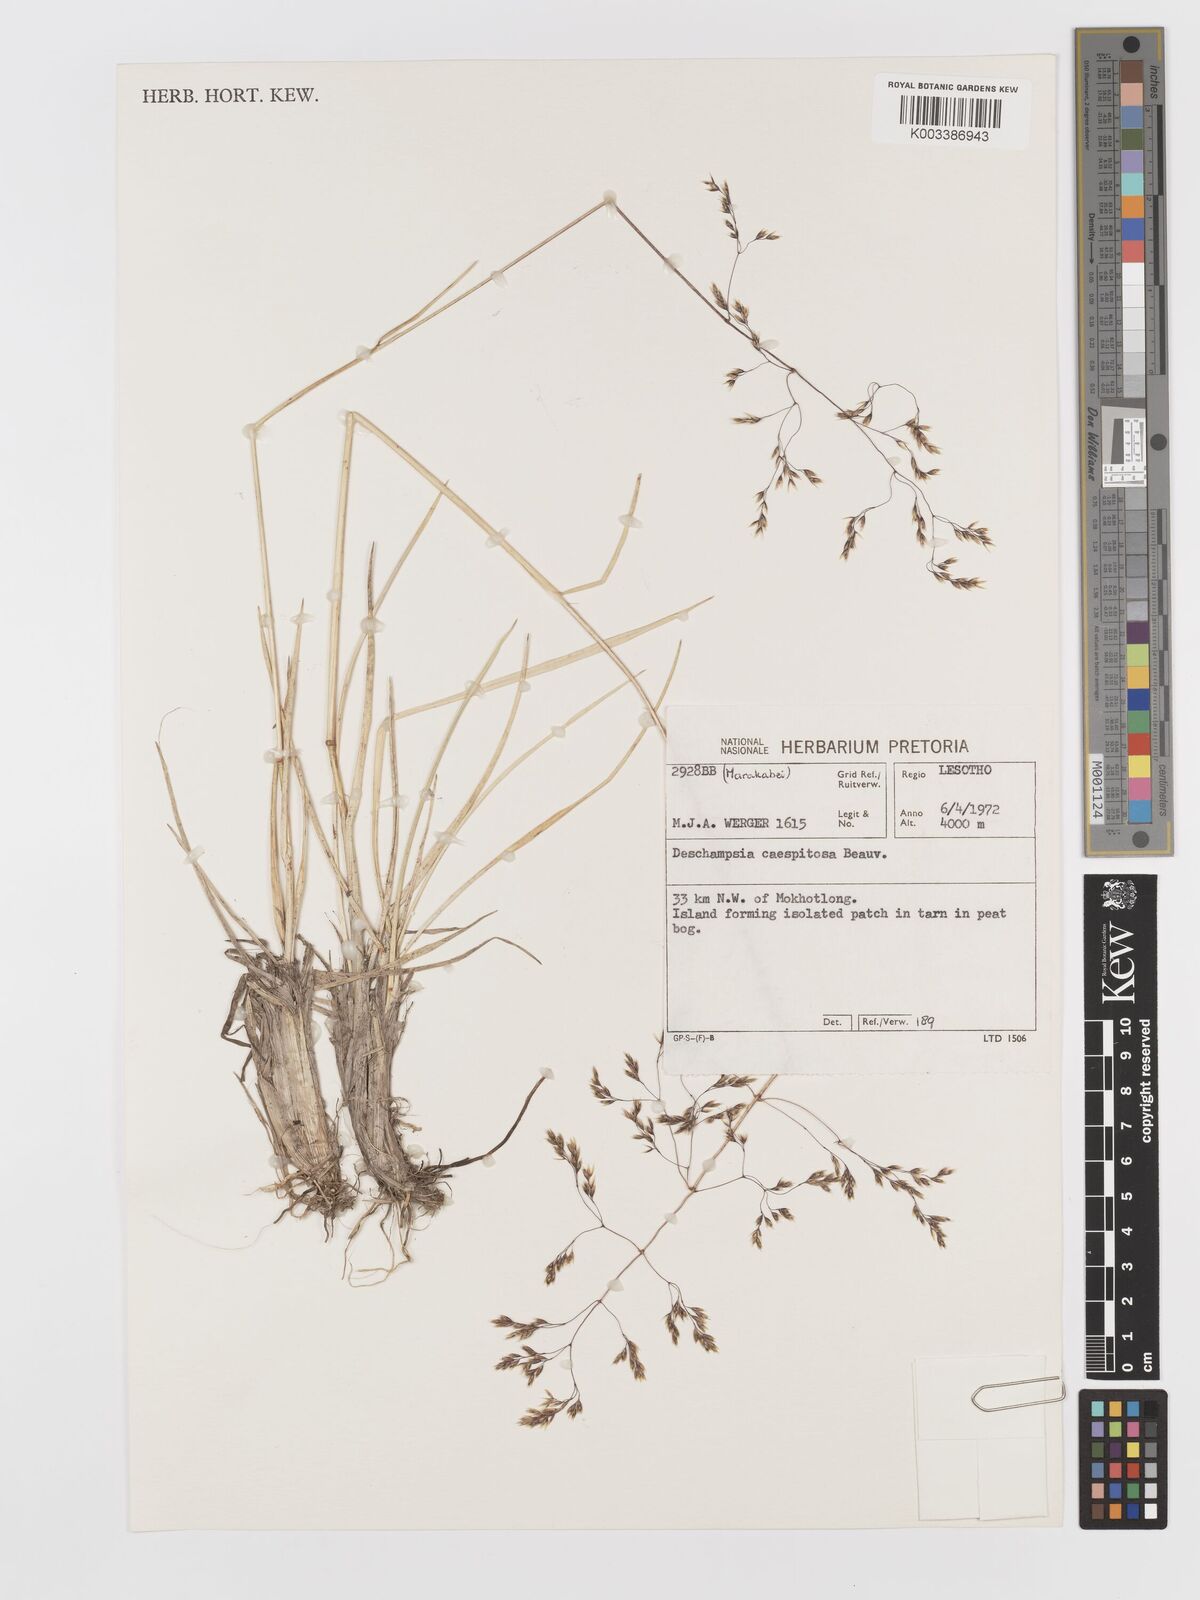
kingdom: Plantae
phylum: Tracheophyta
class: Liliopsida
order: Poales
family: Poaceae
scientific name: Poaceae
